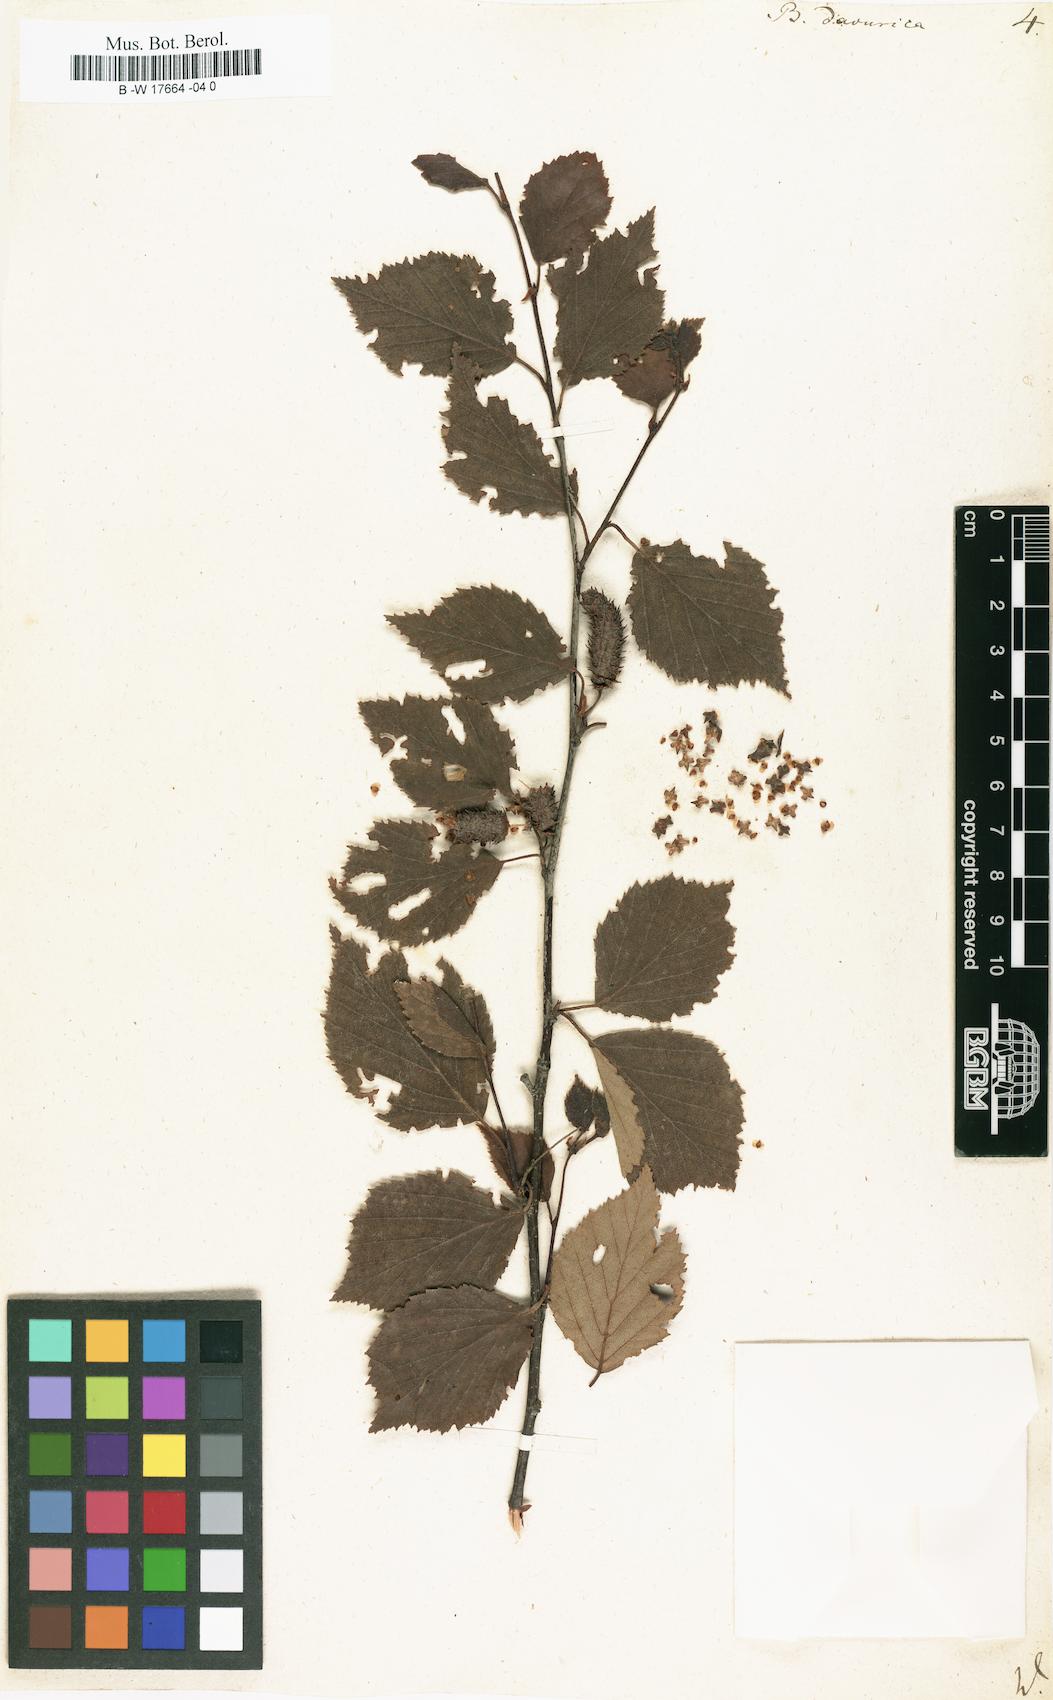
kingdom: Plantae
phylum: Tracheophyta
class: Magnoliopsida
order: Fagales
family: Betulaceae
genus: Betula
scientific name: Betula davurica
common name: Black birch
